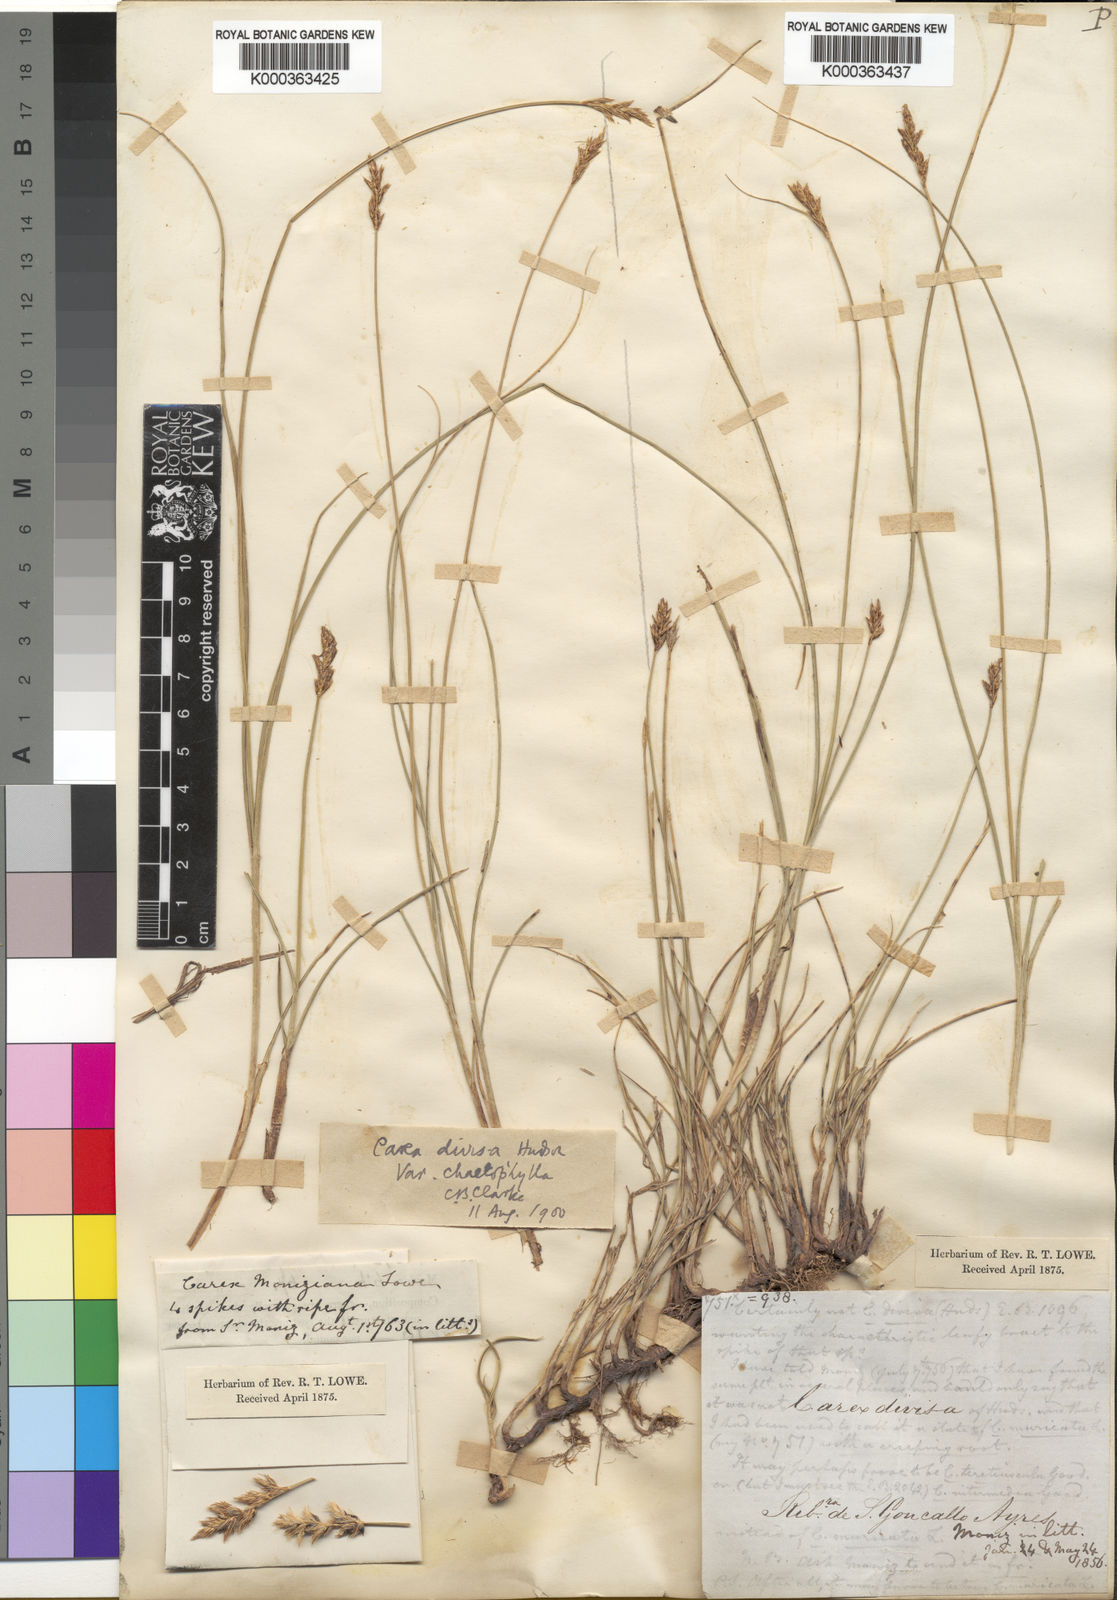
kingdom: Plantae
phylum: Tracheophyta
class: Liliopsida
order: Poales
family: Cyperaceae
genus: Carex
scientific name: Carex
